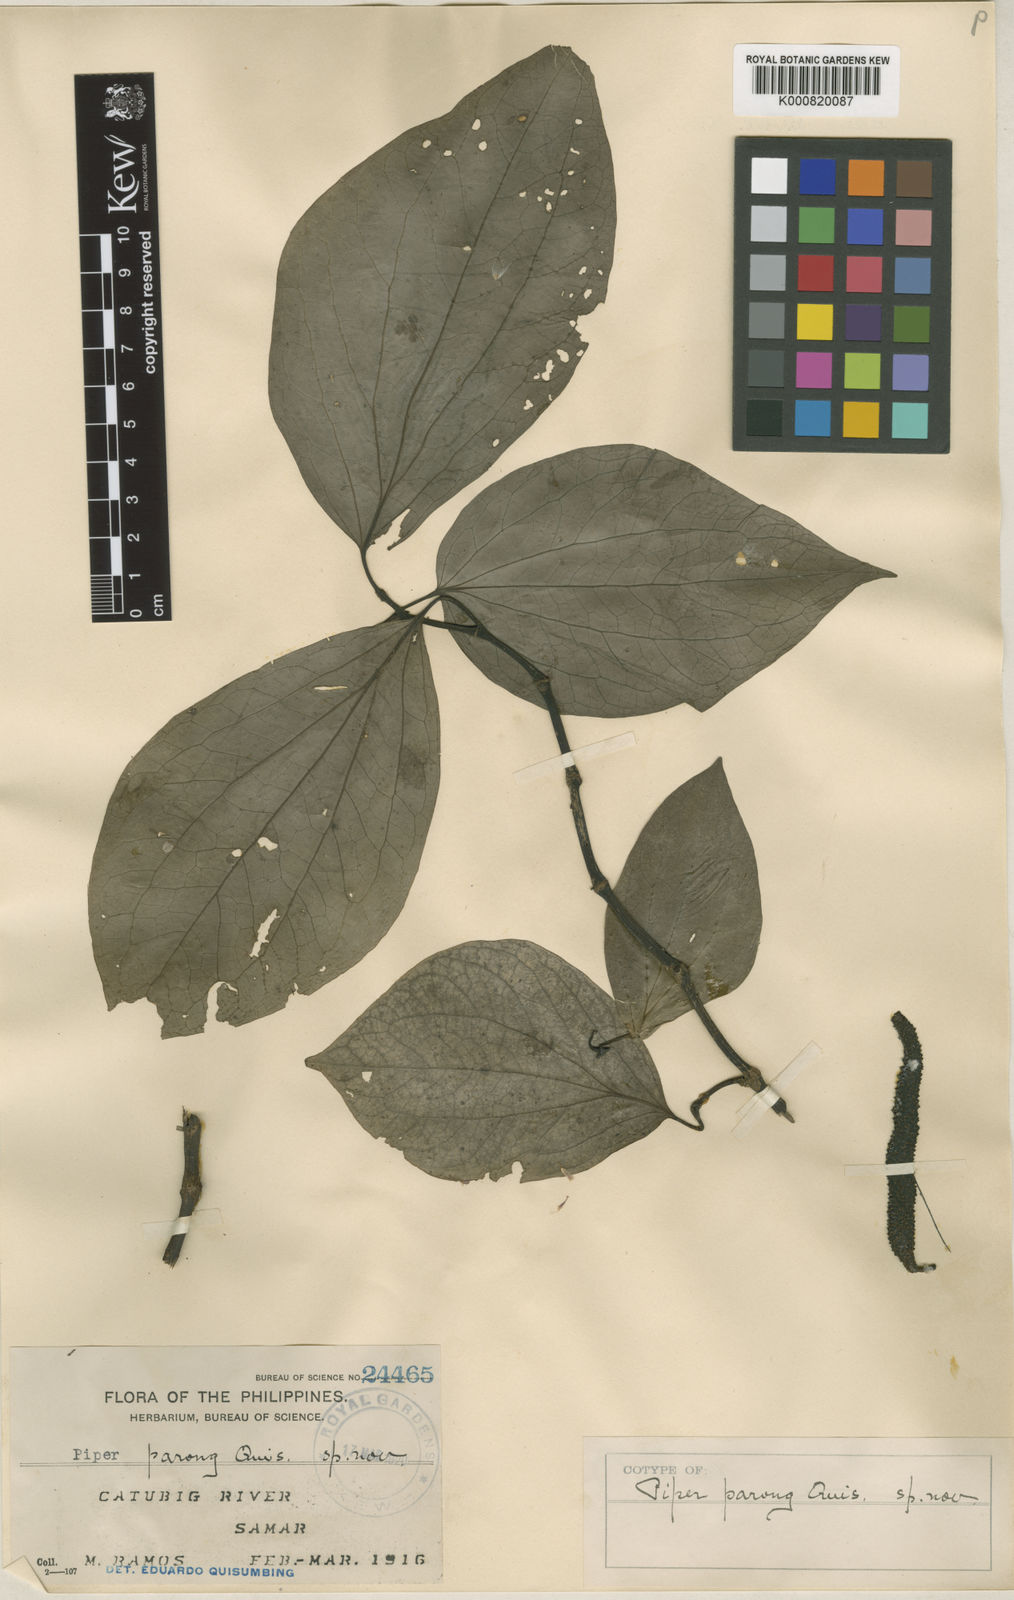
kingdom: Plantae
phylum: Tracheophyta
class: Magnoliopsida
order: Piperales
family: Piperaceae
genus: Piper
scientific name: Piper parong
